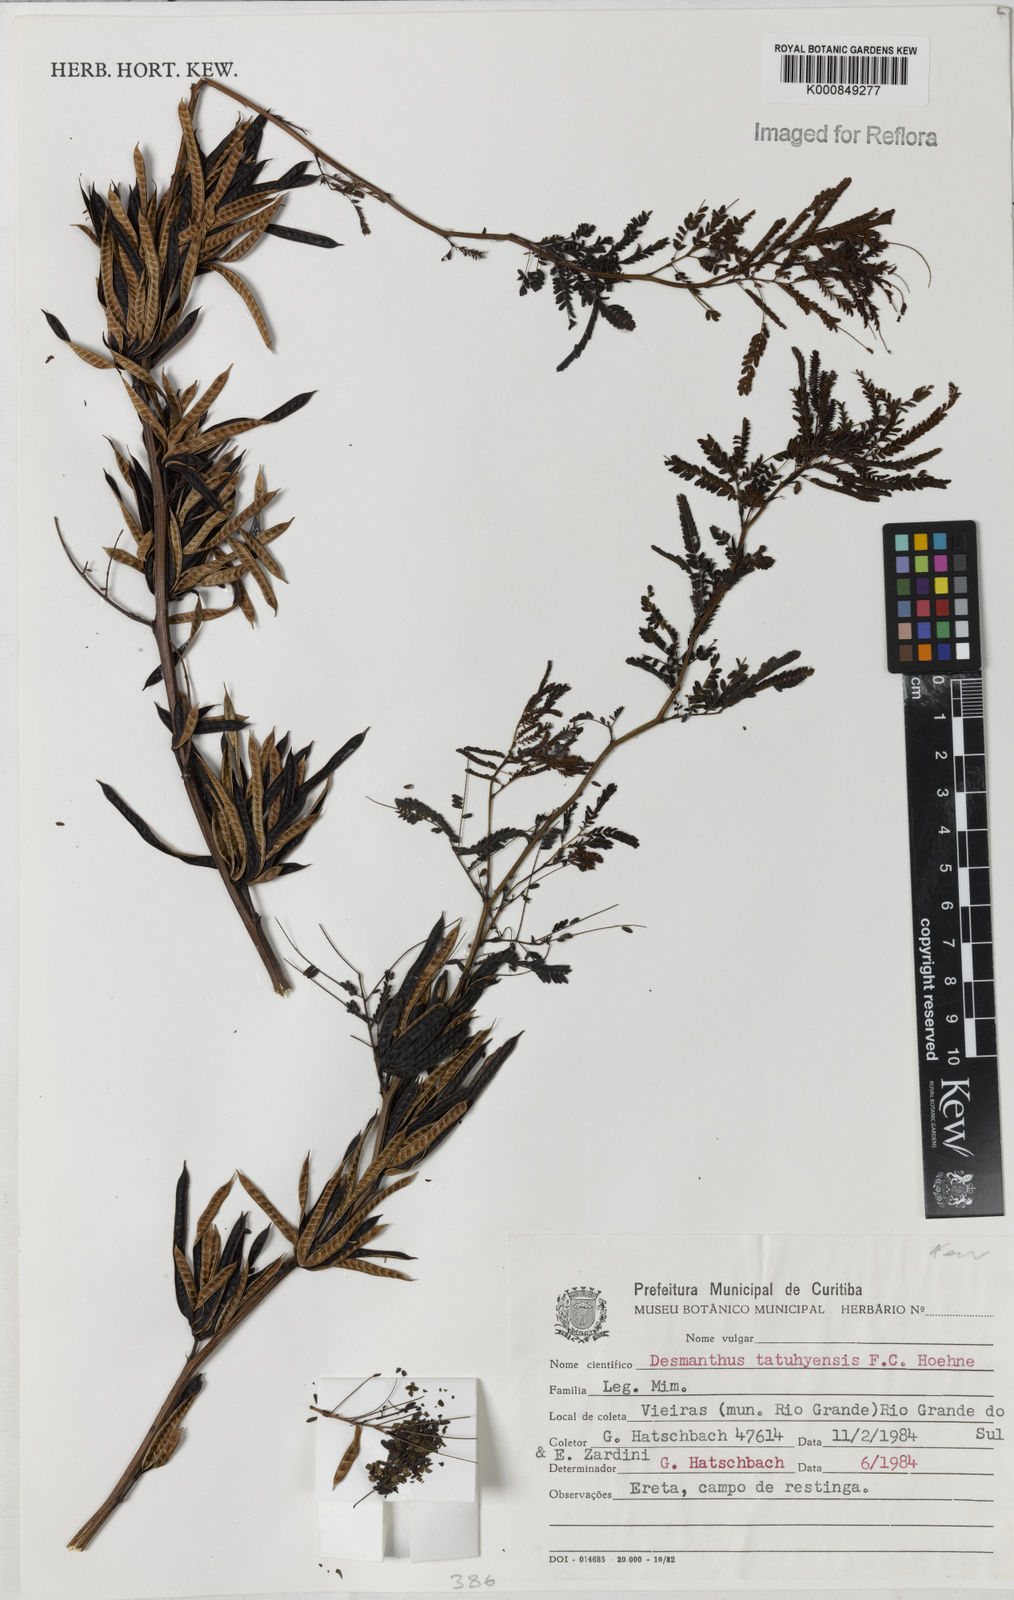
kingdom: Plantae
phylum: Tracheophyta
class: Magnoliopsida
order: Fabales
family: Fabaceae
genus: Desmanthus
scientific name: Desmanthus tatuhyensis
